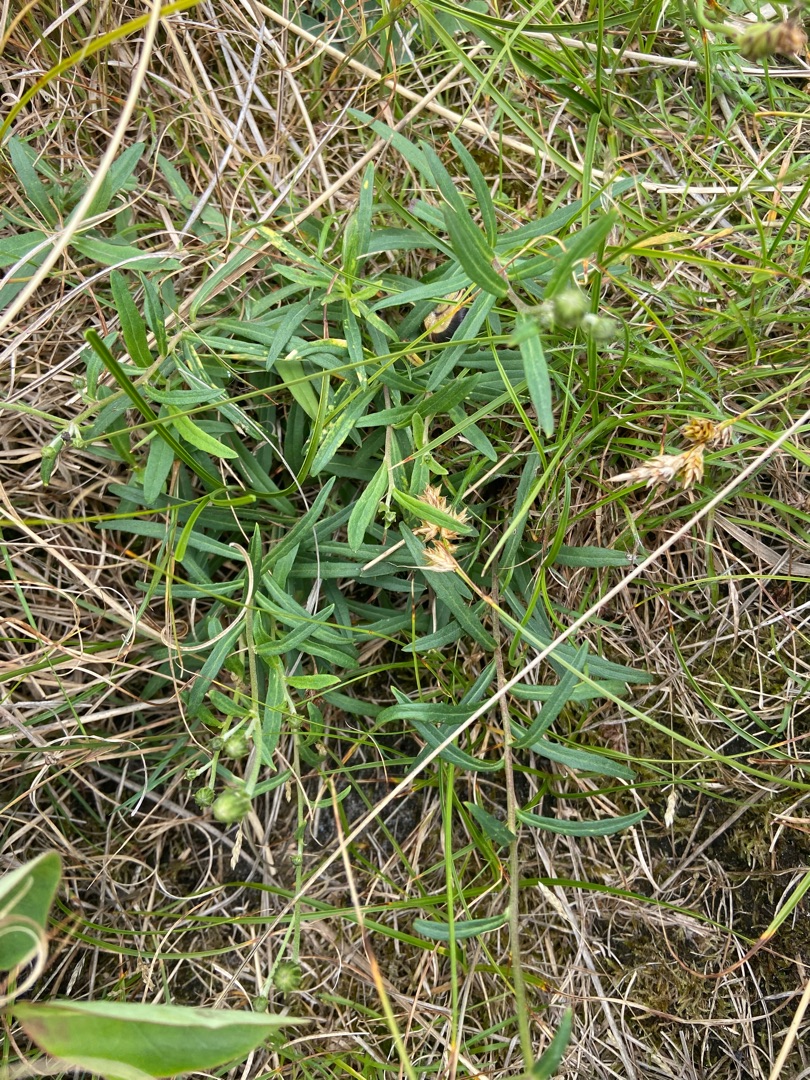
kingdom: Plantae
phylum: Tracheophyta
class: Magnoliopsida
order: Asterales
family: Asteraceae
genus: Hieracium
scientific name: Hieracium umbellatum
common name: Smalbladet høgeurt
